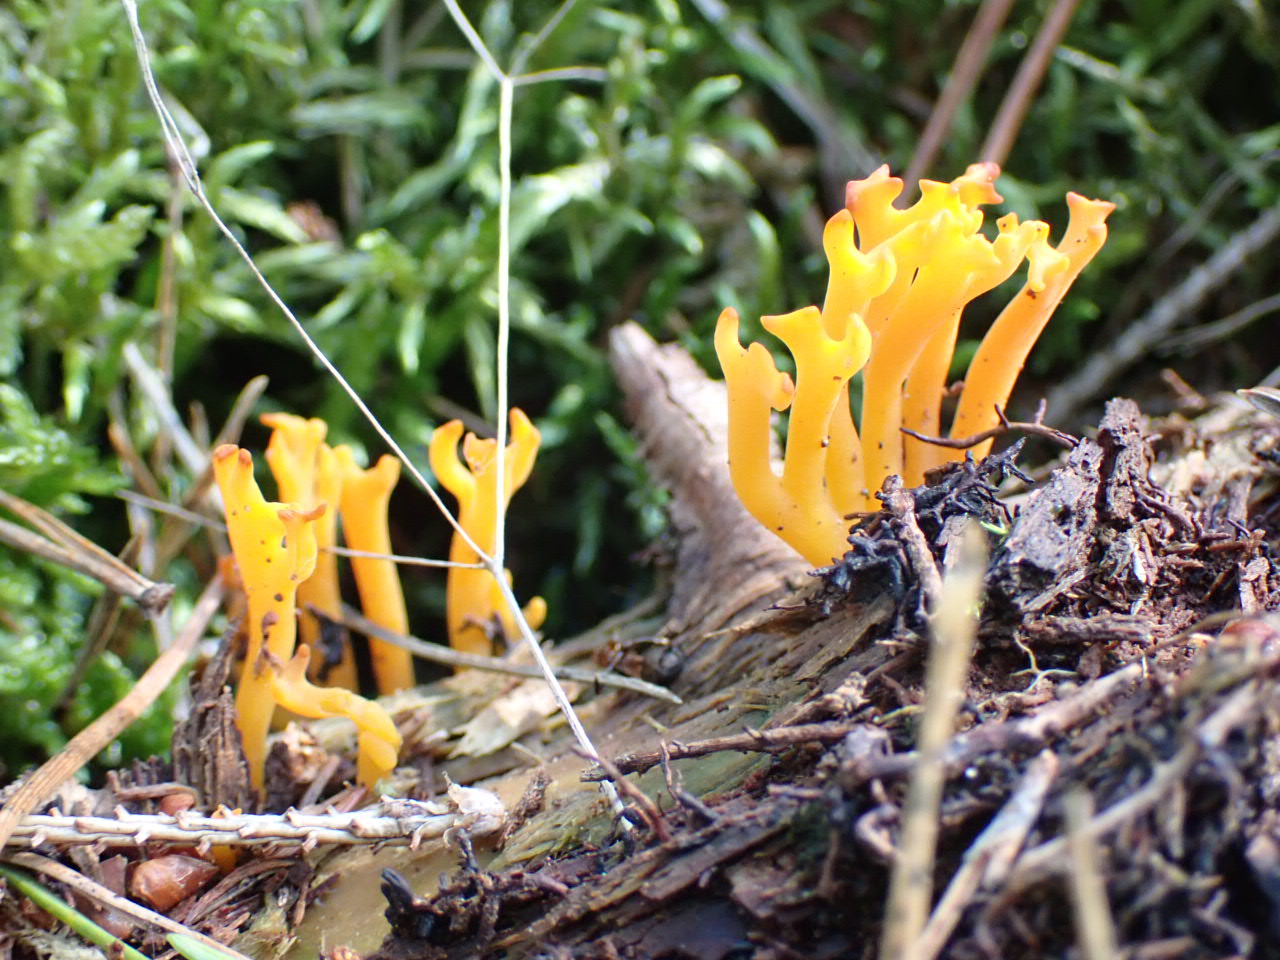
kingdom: Fungi
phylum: Basidiomycota
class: Dacrymycetes
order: Dacrymycetales
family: Dacrymycetaceae
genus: Calocera
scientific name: Calocera viscosa
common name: almindelig guldgaffel
